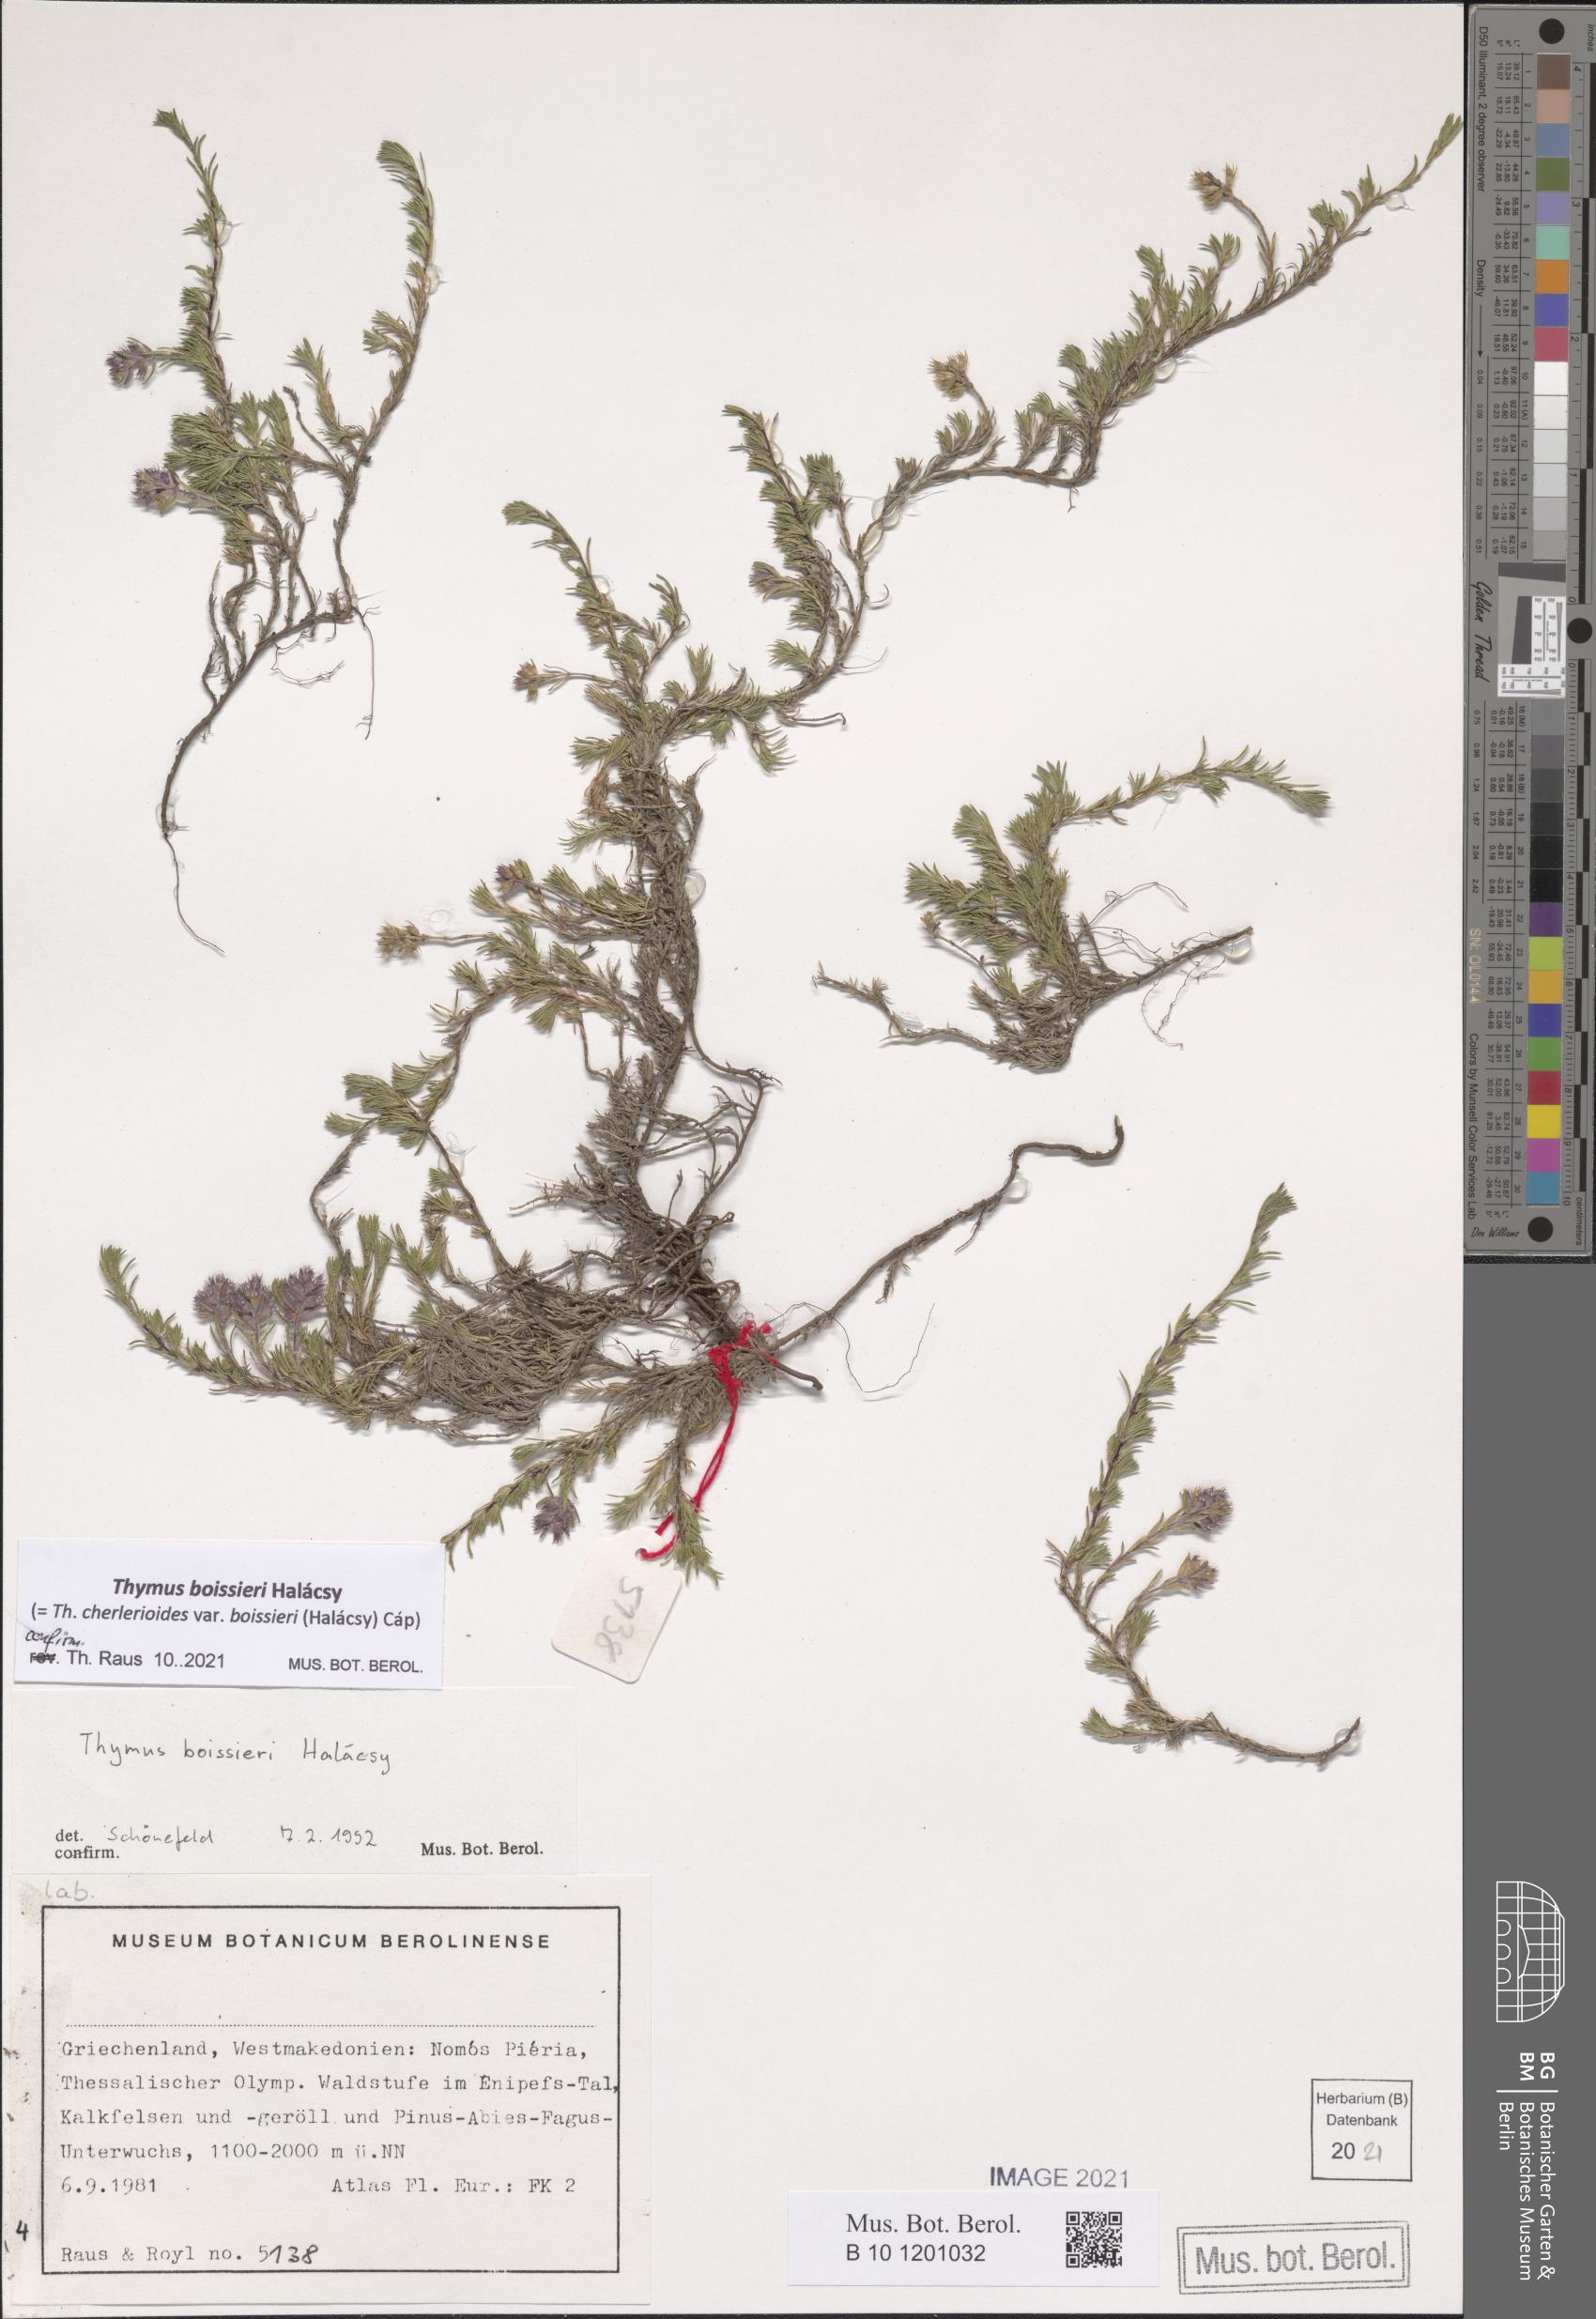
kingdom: Plantae
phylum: Tracheophyta
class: Magnoliopsida
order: Lamiales
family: Lamiaceae
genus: Thymus
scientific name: Thymus boissieri
